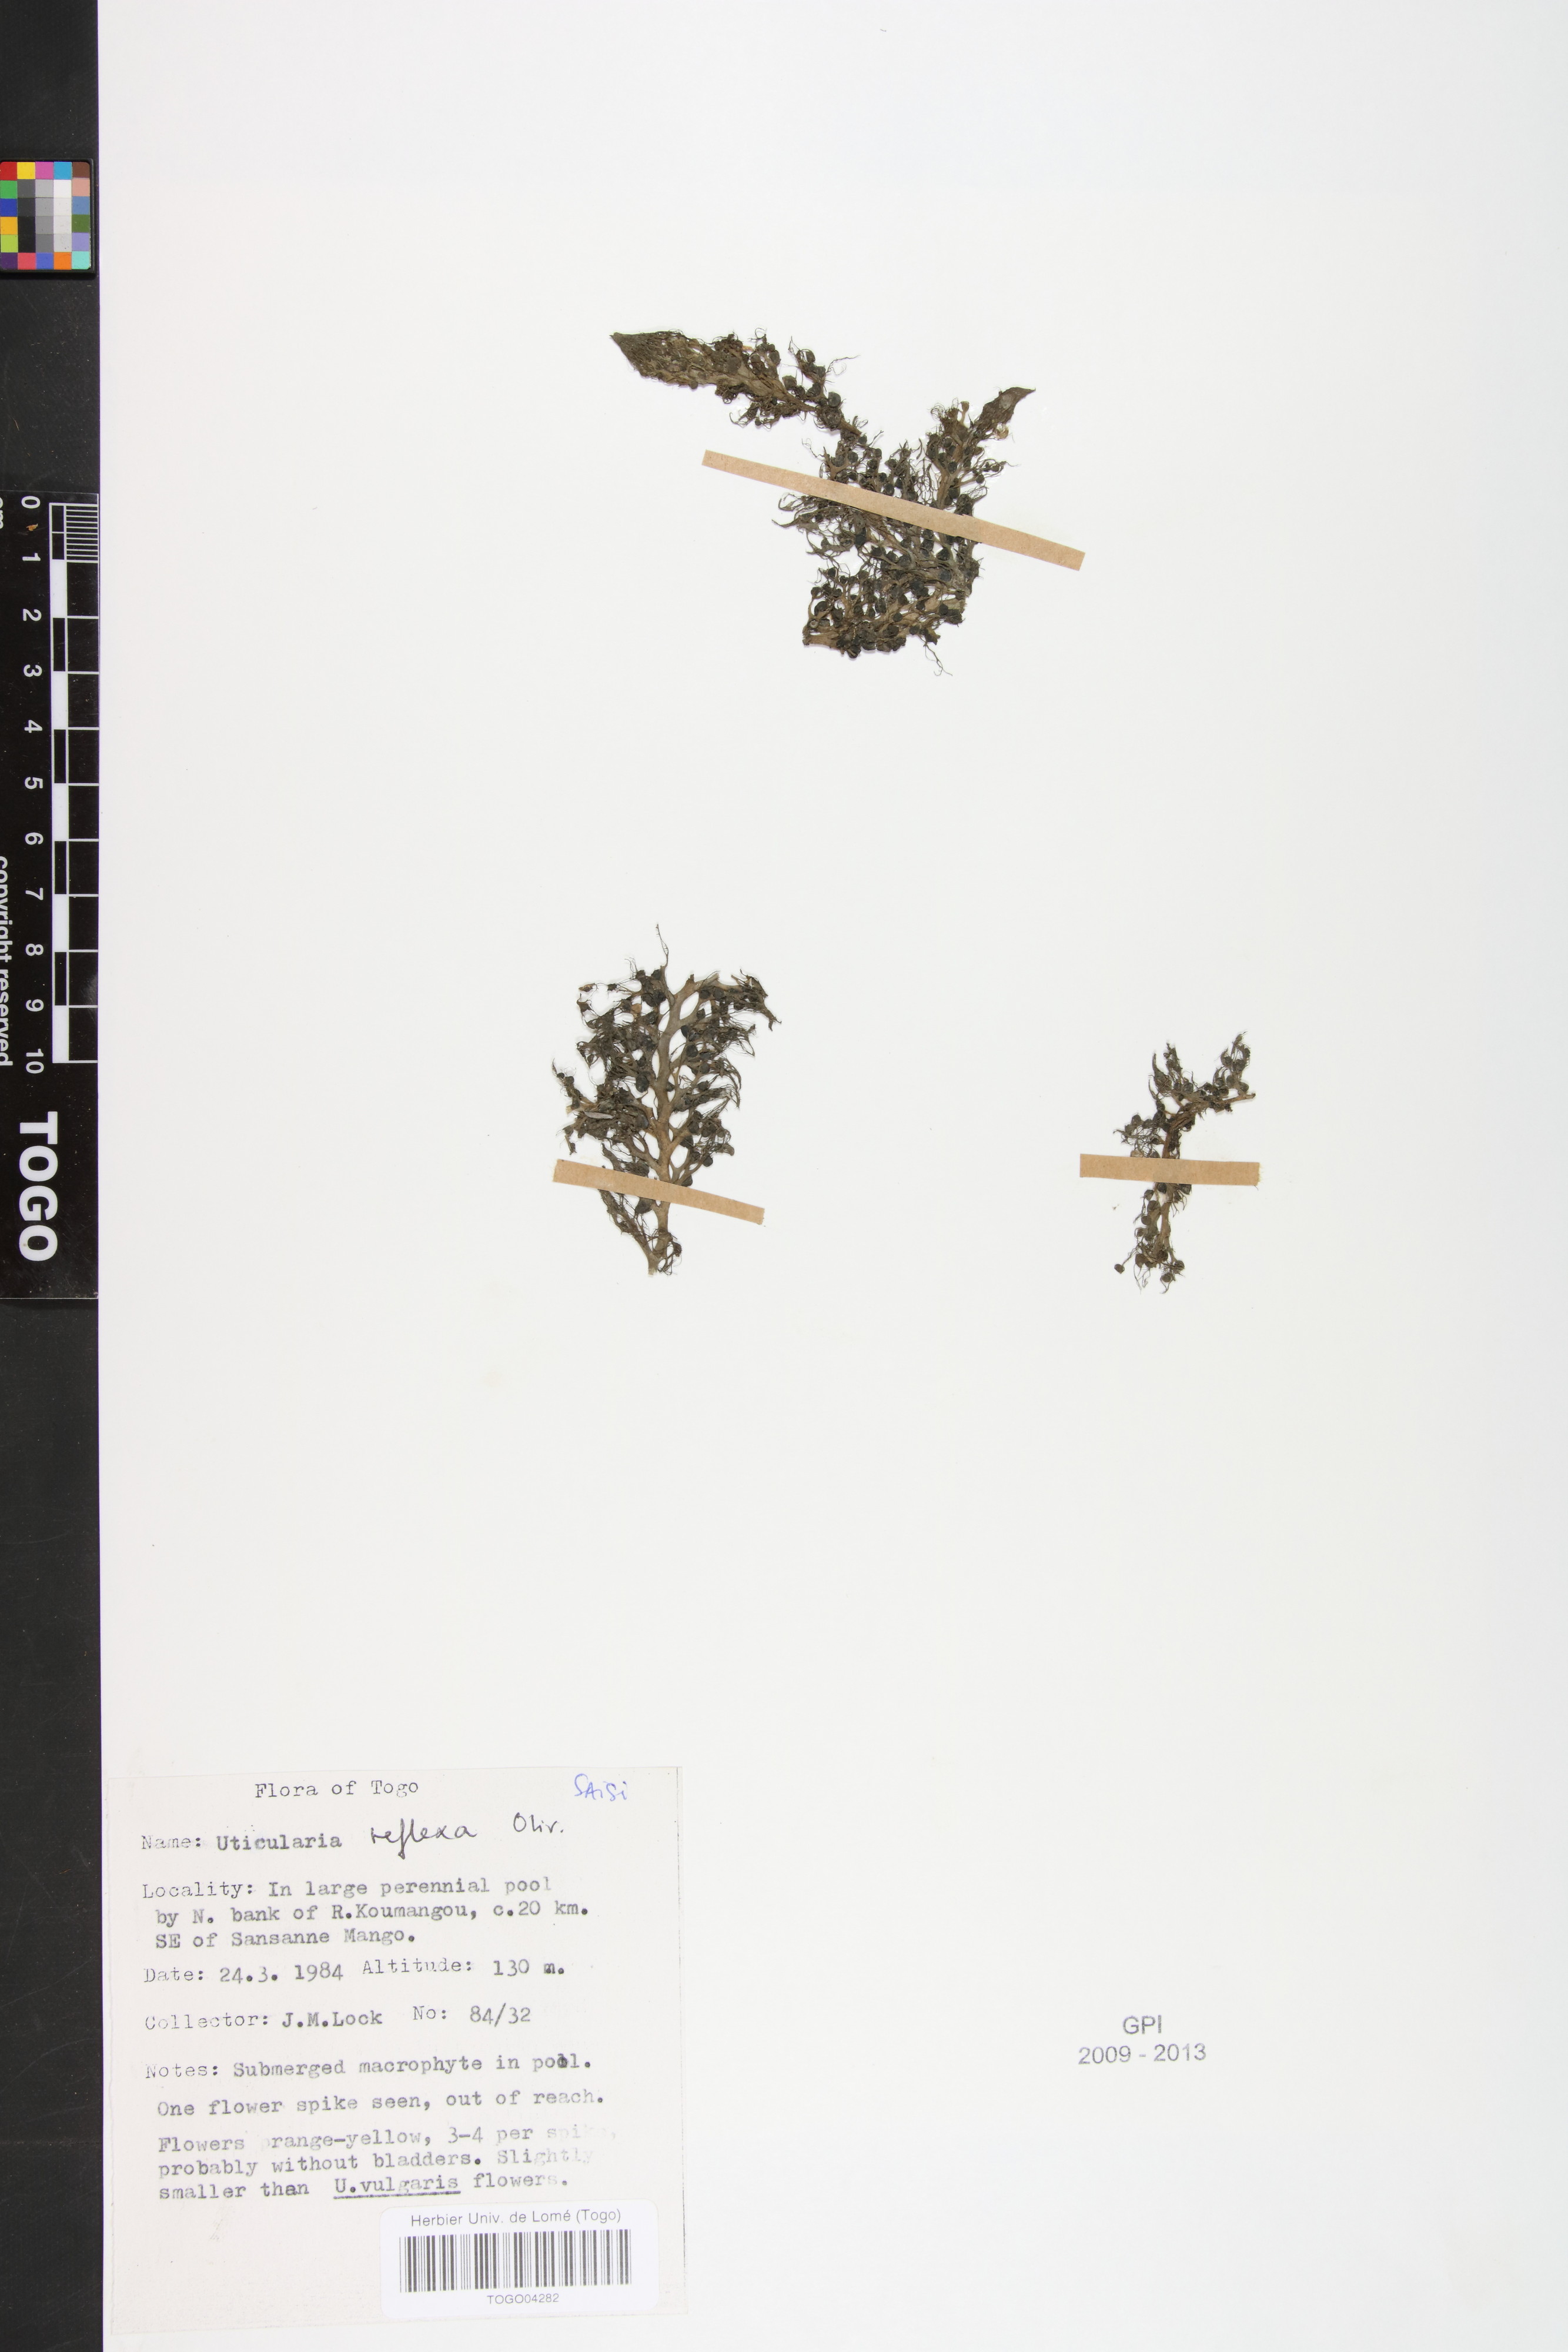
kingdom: Plantae
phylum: Tracheophyta
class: Magnoliopsida
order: Lamiales
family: Lentibulariaceae
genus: Utricularia
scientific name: Utricularia reflexa
